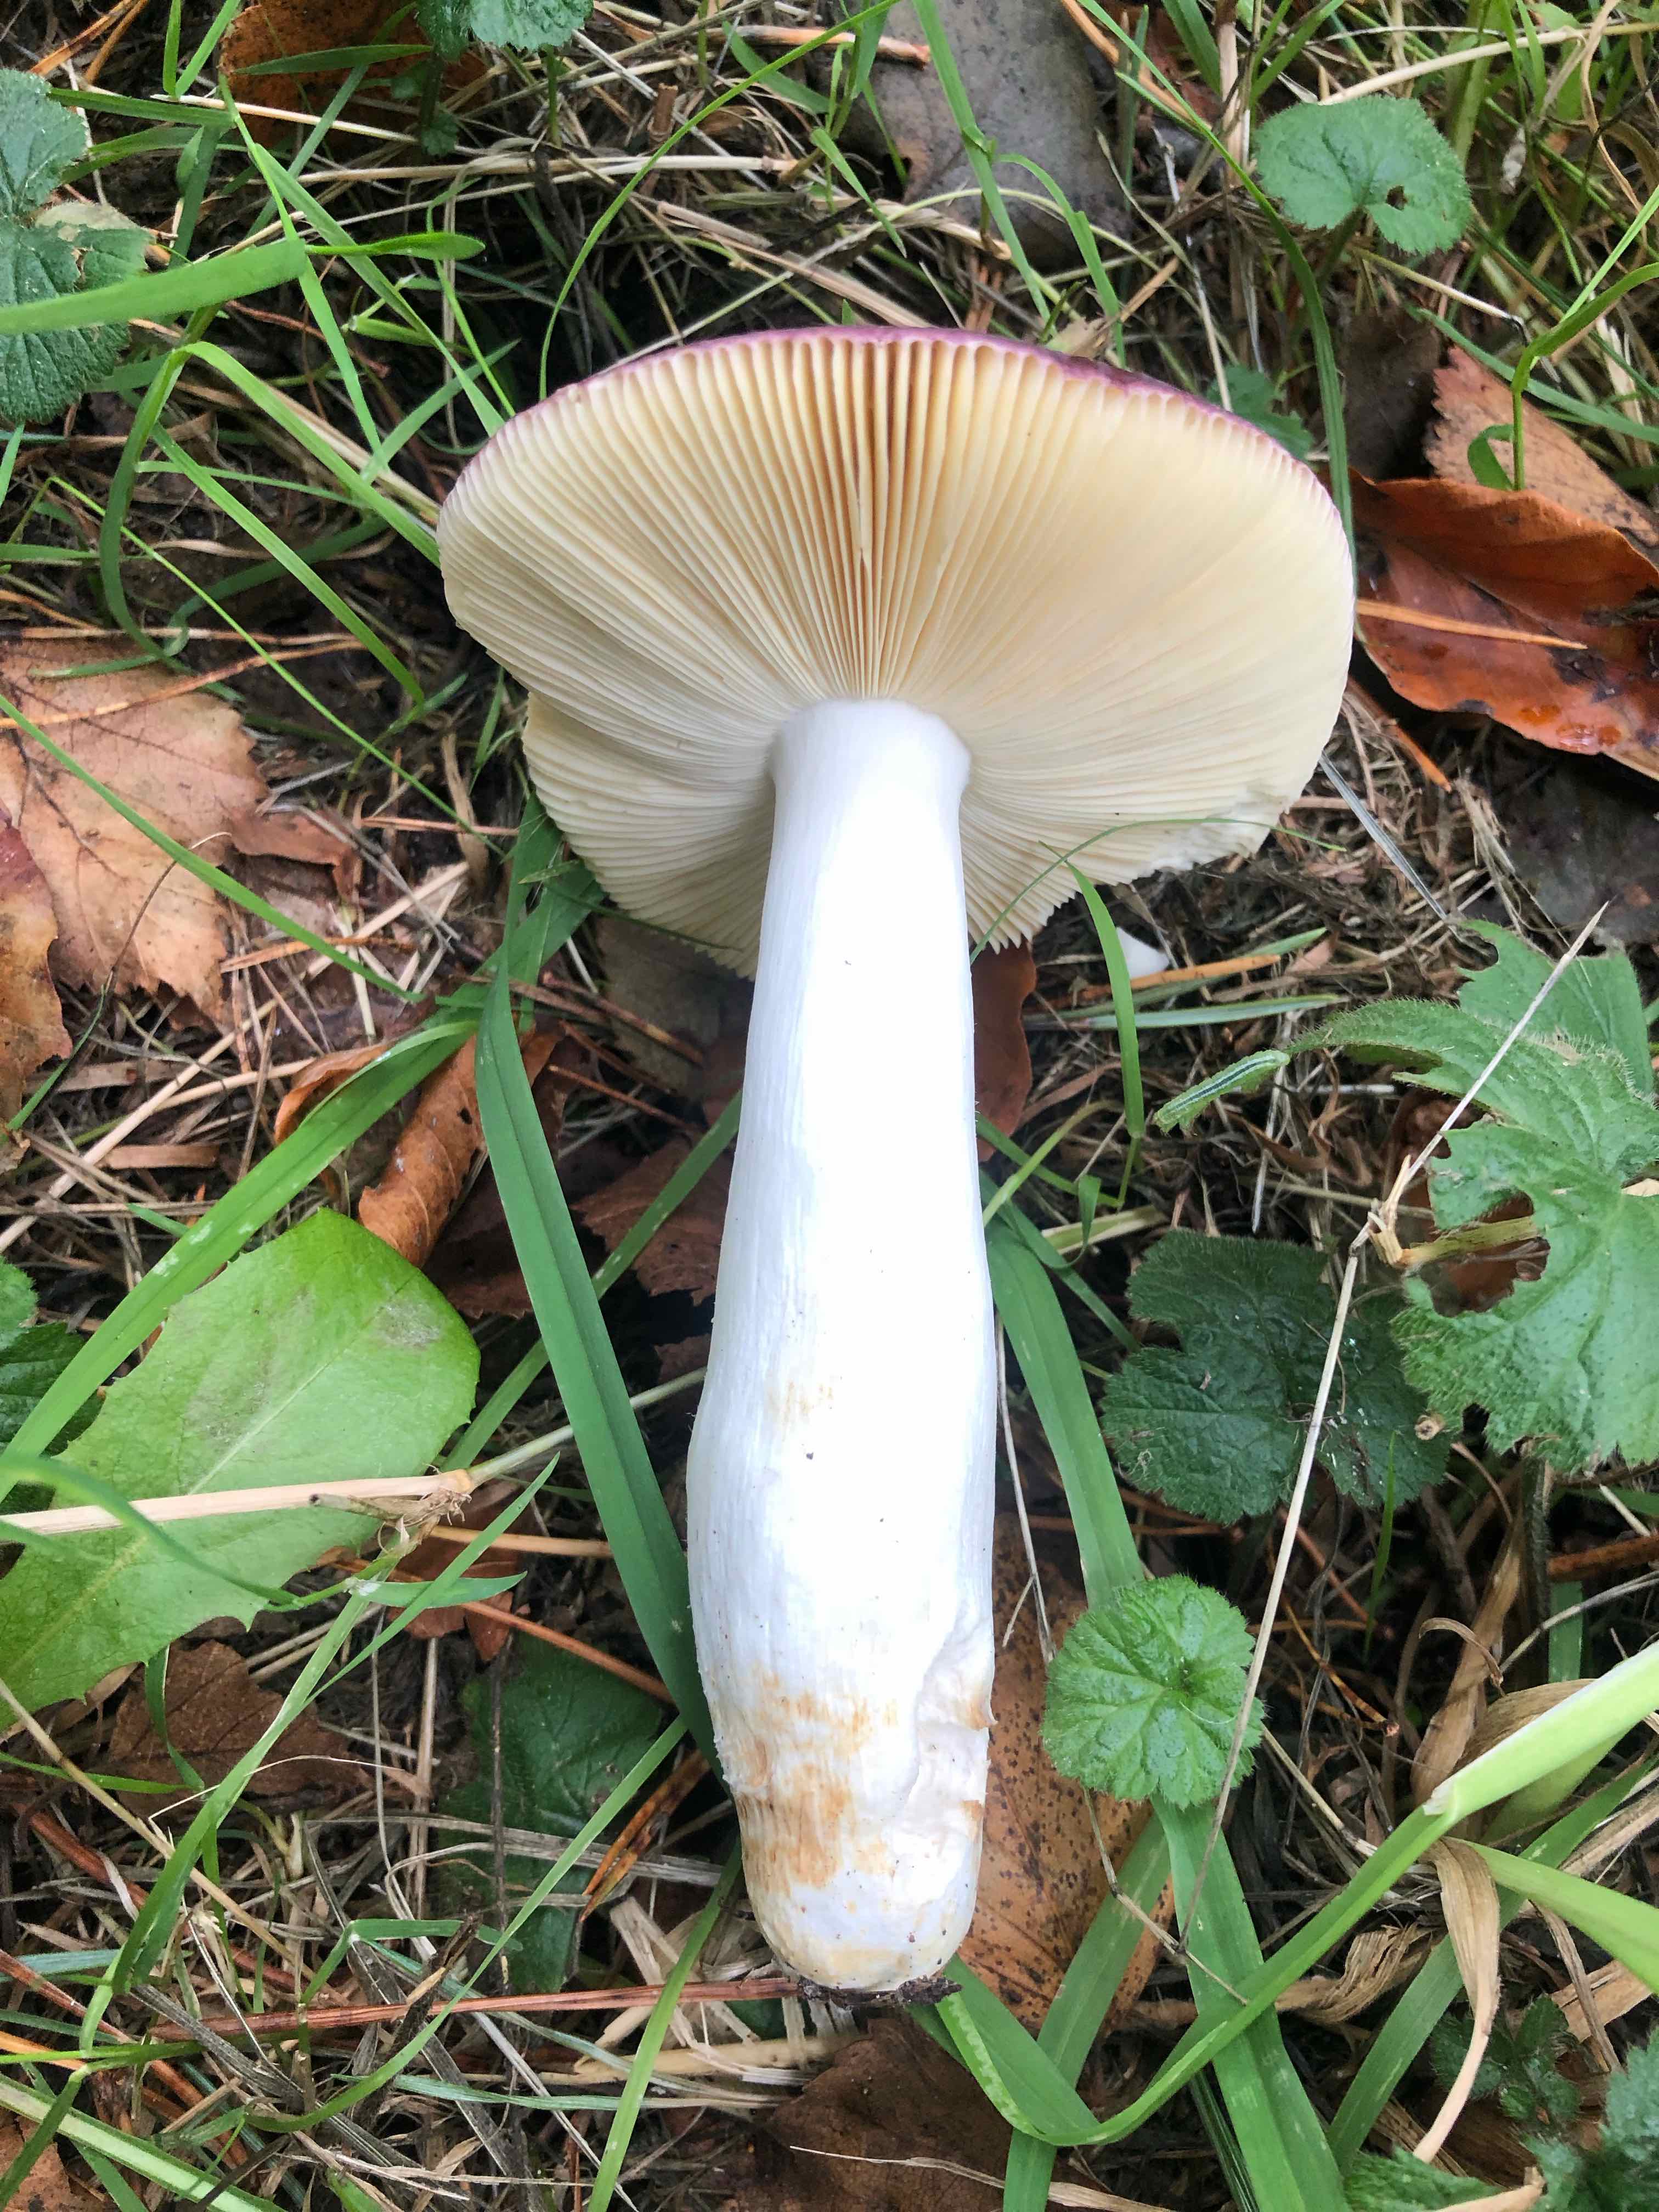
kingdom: Fungi
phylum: Basidiomycota
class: Agaricomycetes
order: Russulales
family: Russulaceae
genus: Russula
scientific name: Russula caerulea
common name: puklet skørhat
